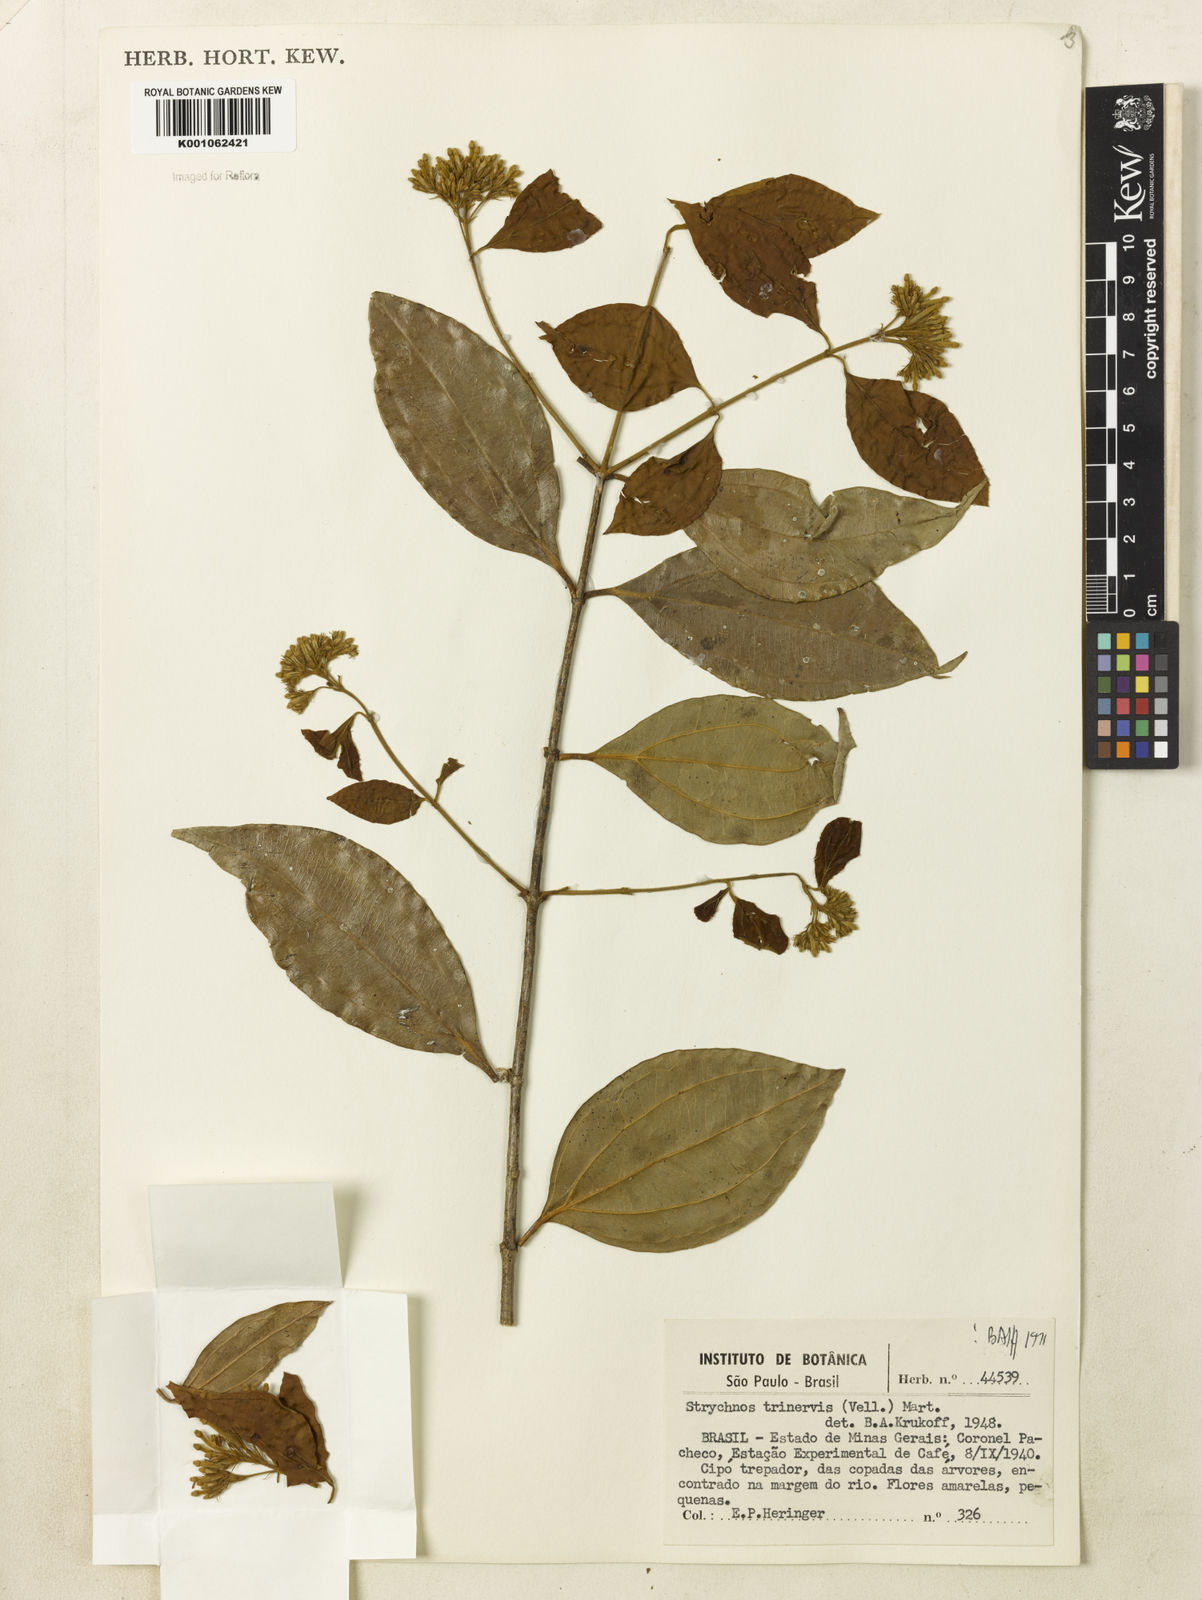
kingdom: Plantae
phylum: Tracheophyta
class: Magnoliopsida
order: Gentianales
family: Loganiaceae
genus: Strychnos
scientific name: Strychnos
